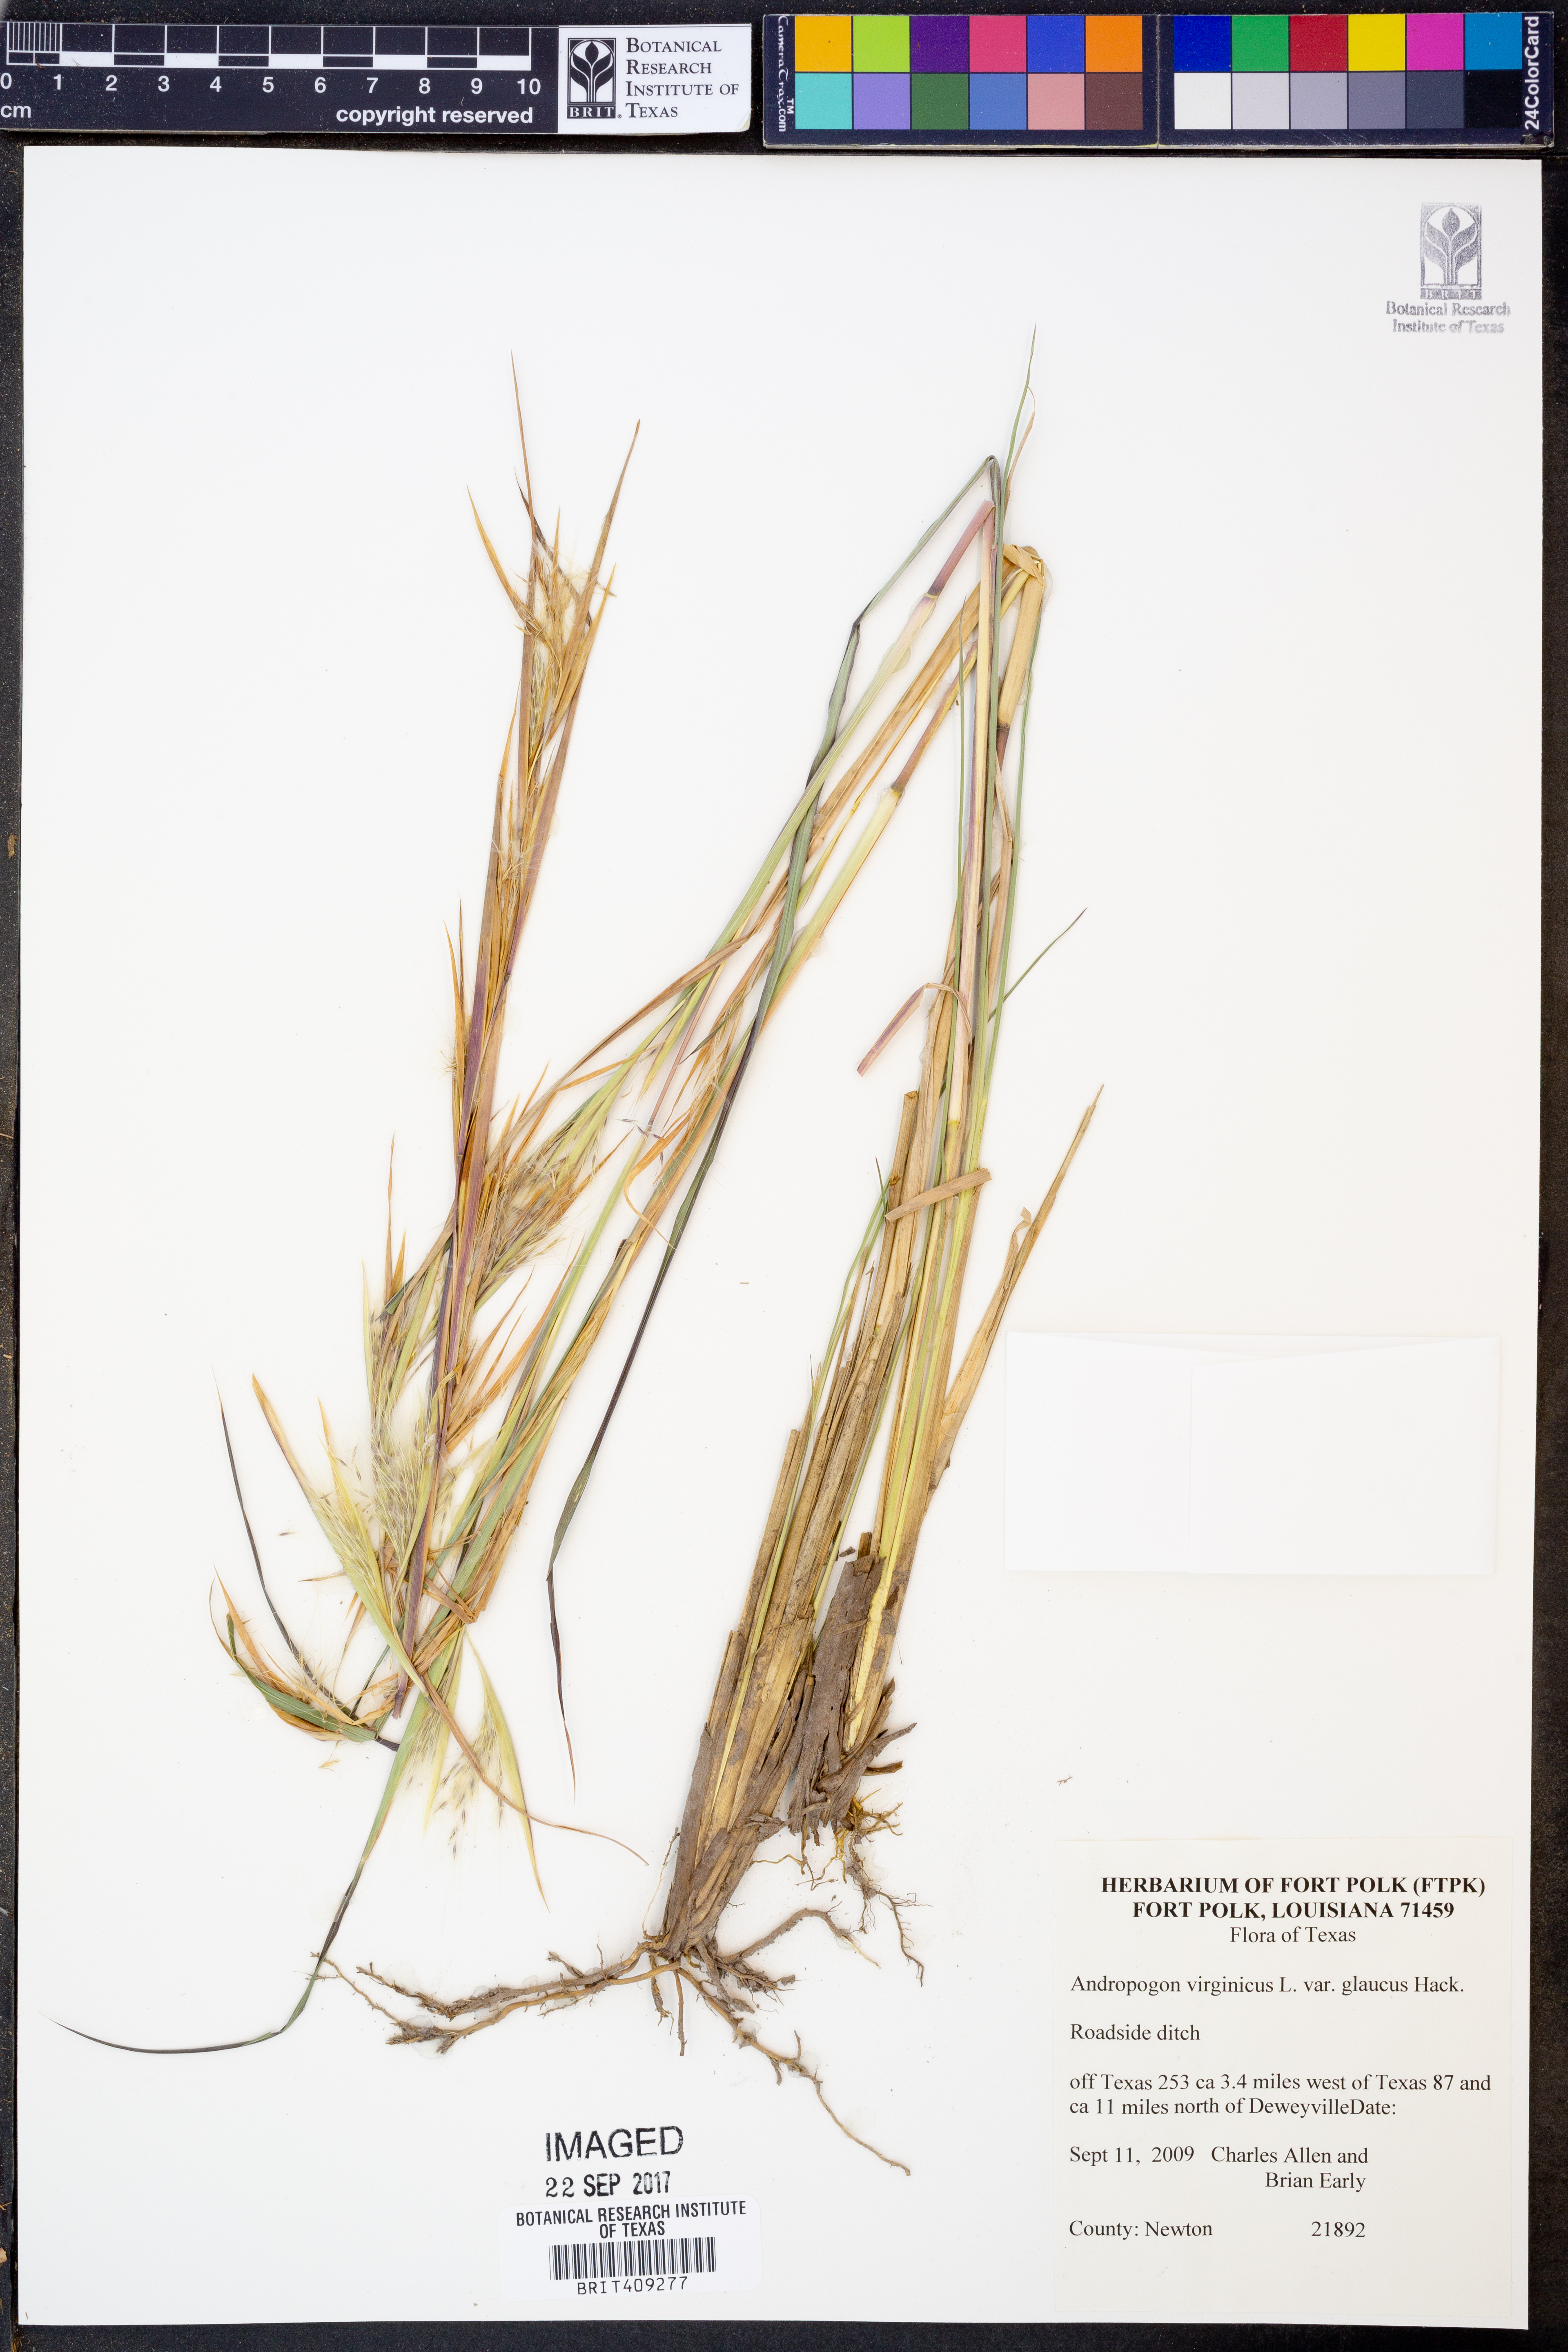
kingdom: Plantae
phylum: Tracheophyta
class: Liliopsida
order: Poales
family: Poaceae
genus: Andropogon
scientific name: Andropogon capillipes
